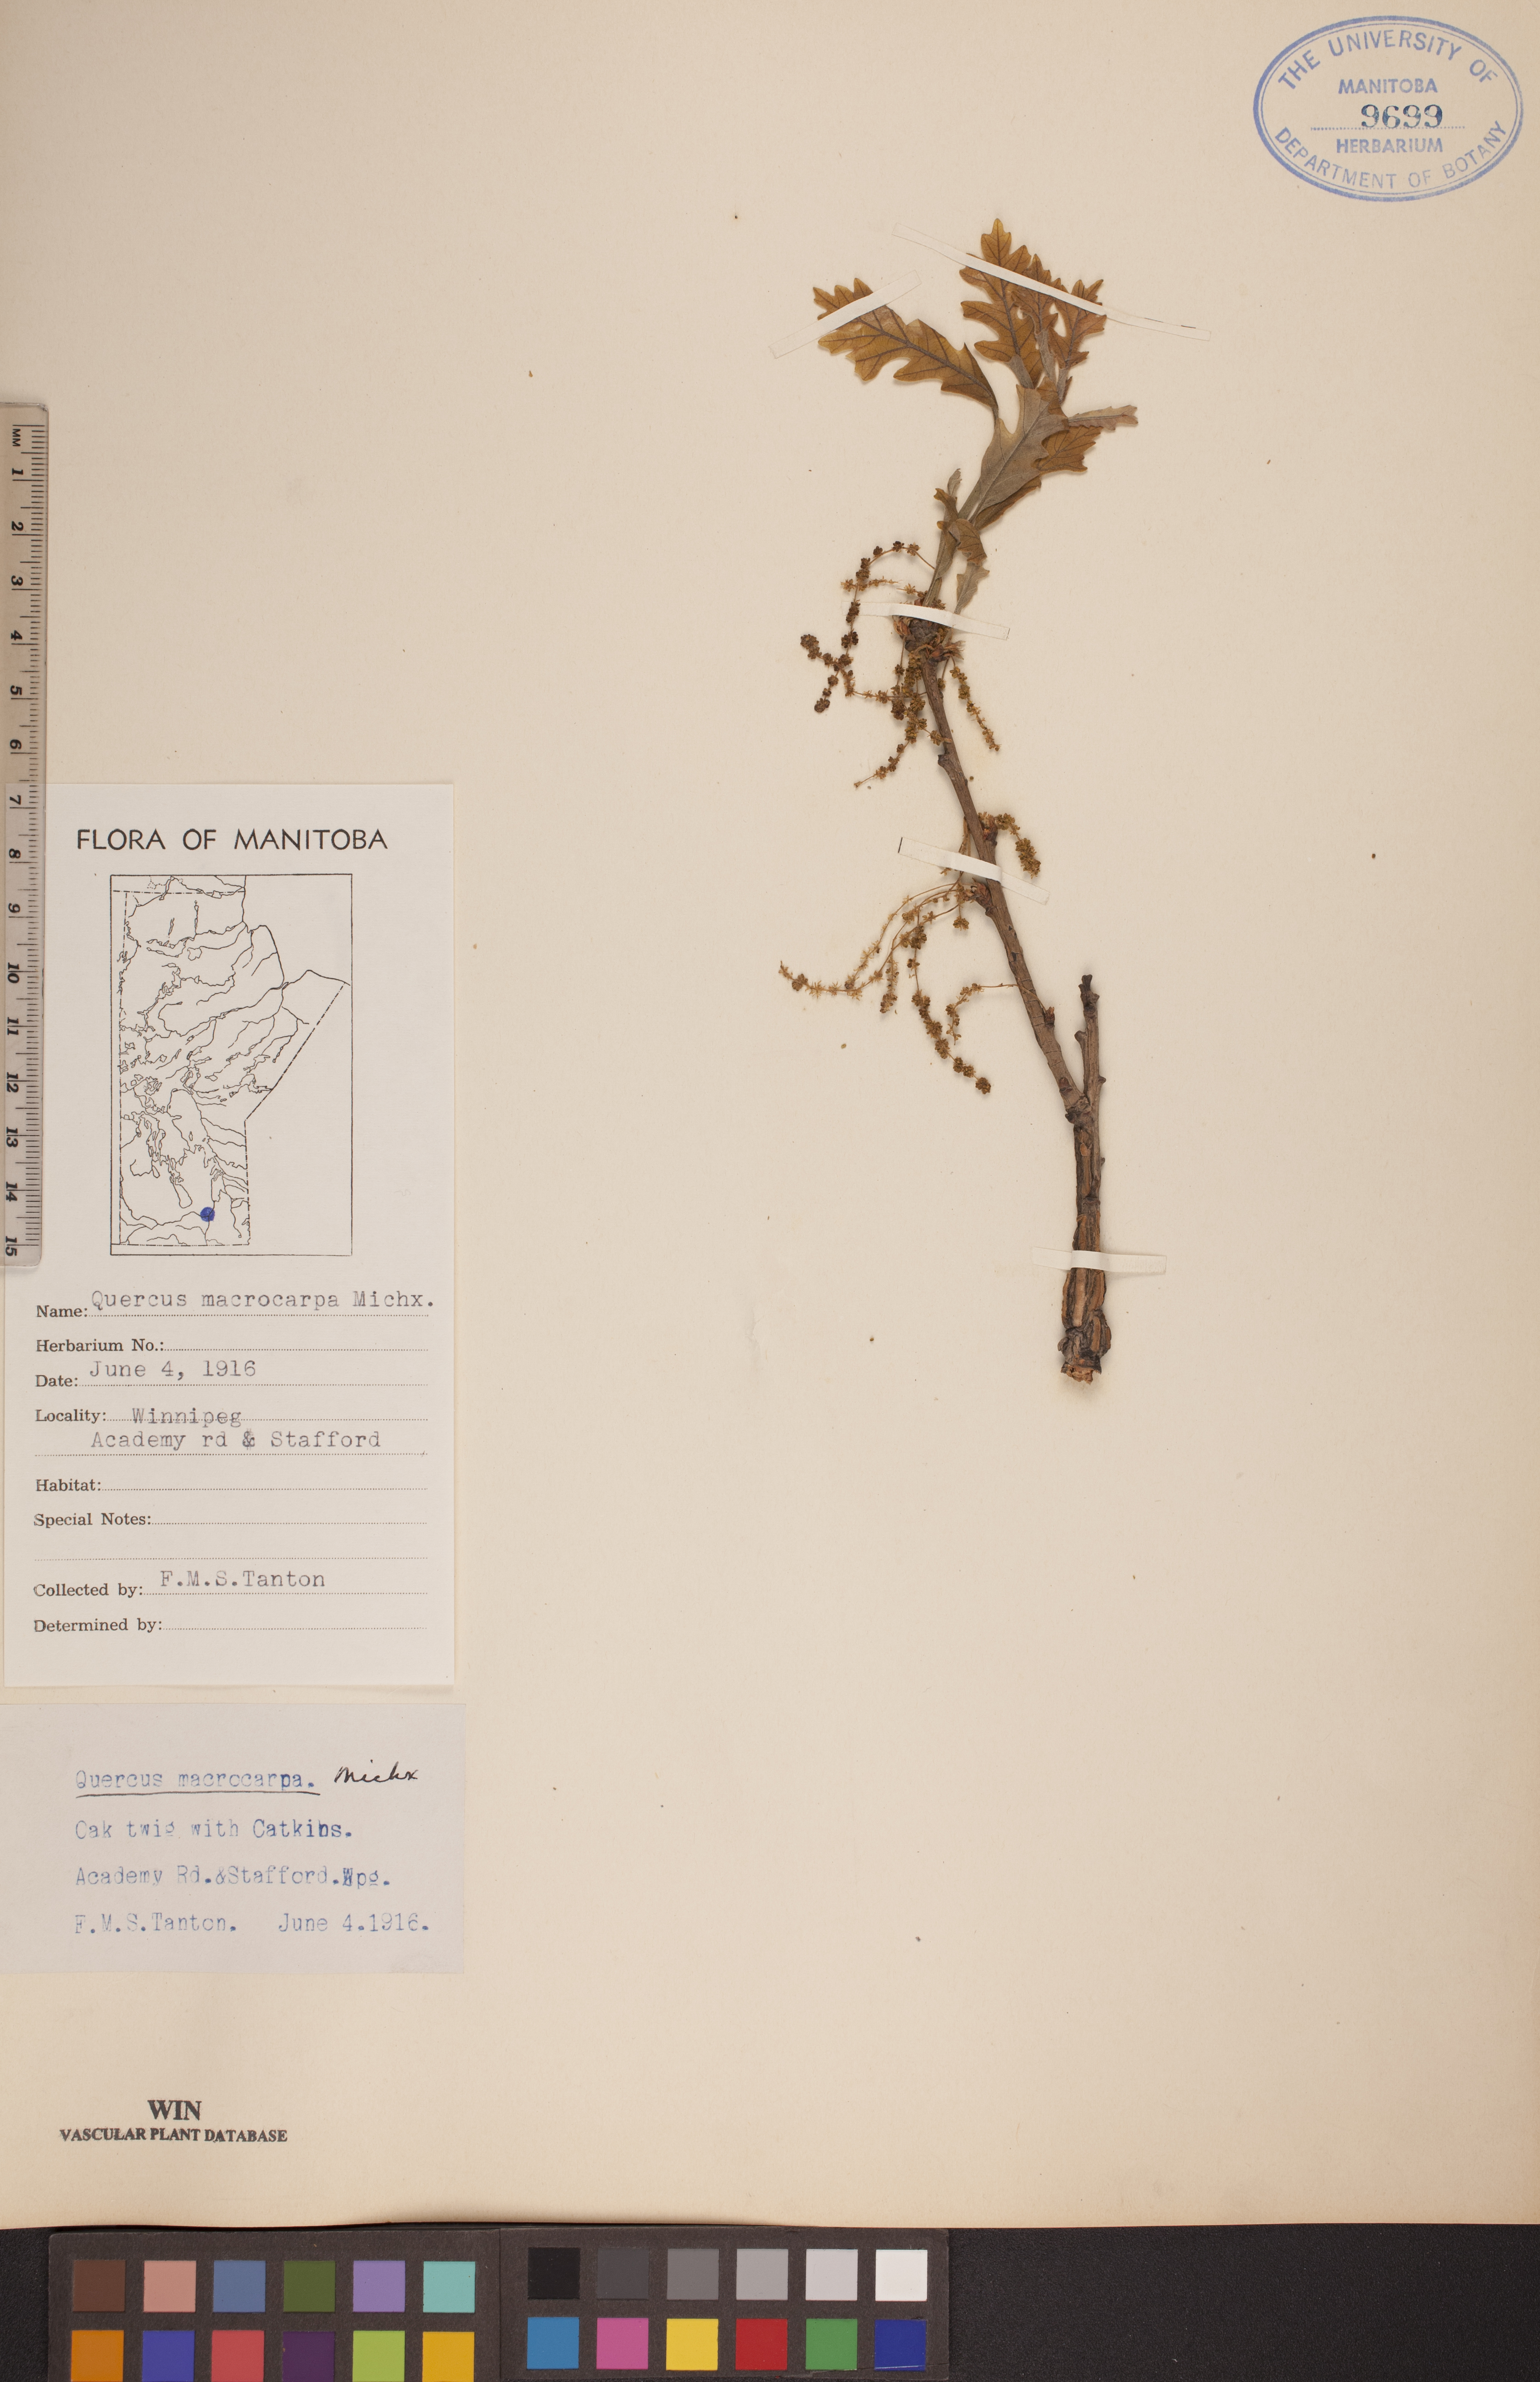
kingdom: Plantae
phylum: Tracheophyta
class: Magnoliopsida
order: Fagales
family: Fagaceae
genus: Quercus
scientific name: Quercus macrocarpa
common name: Bur oak
